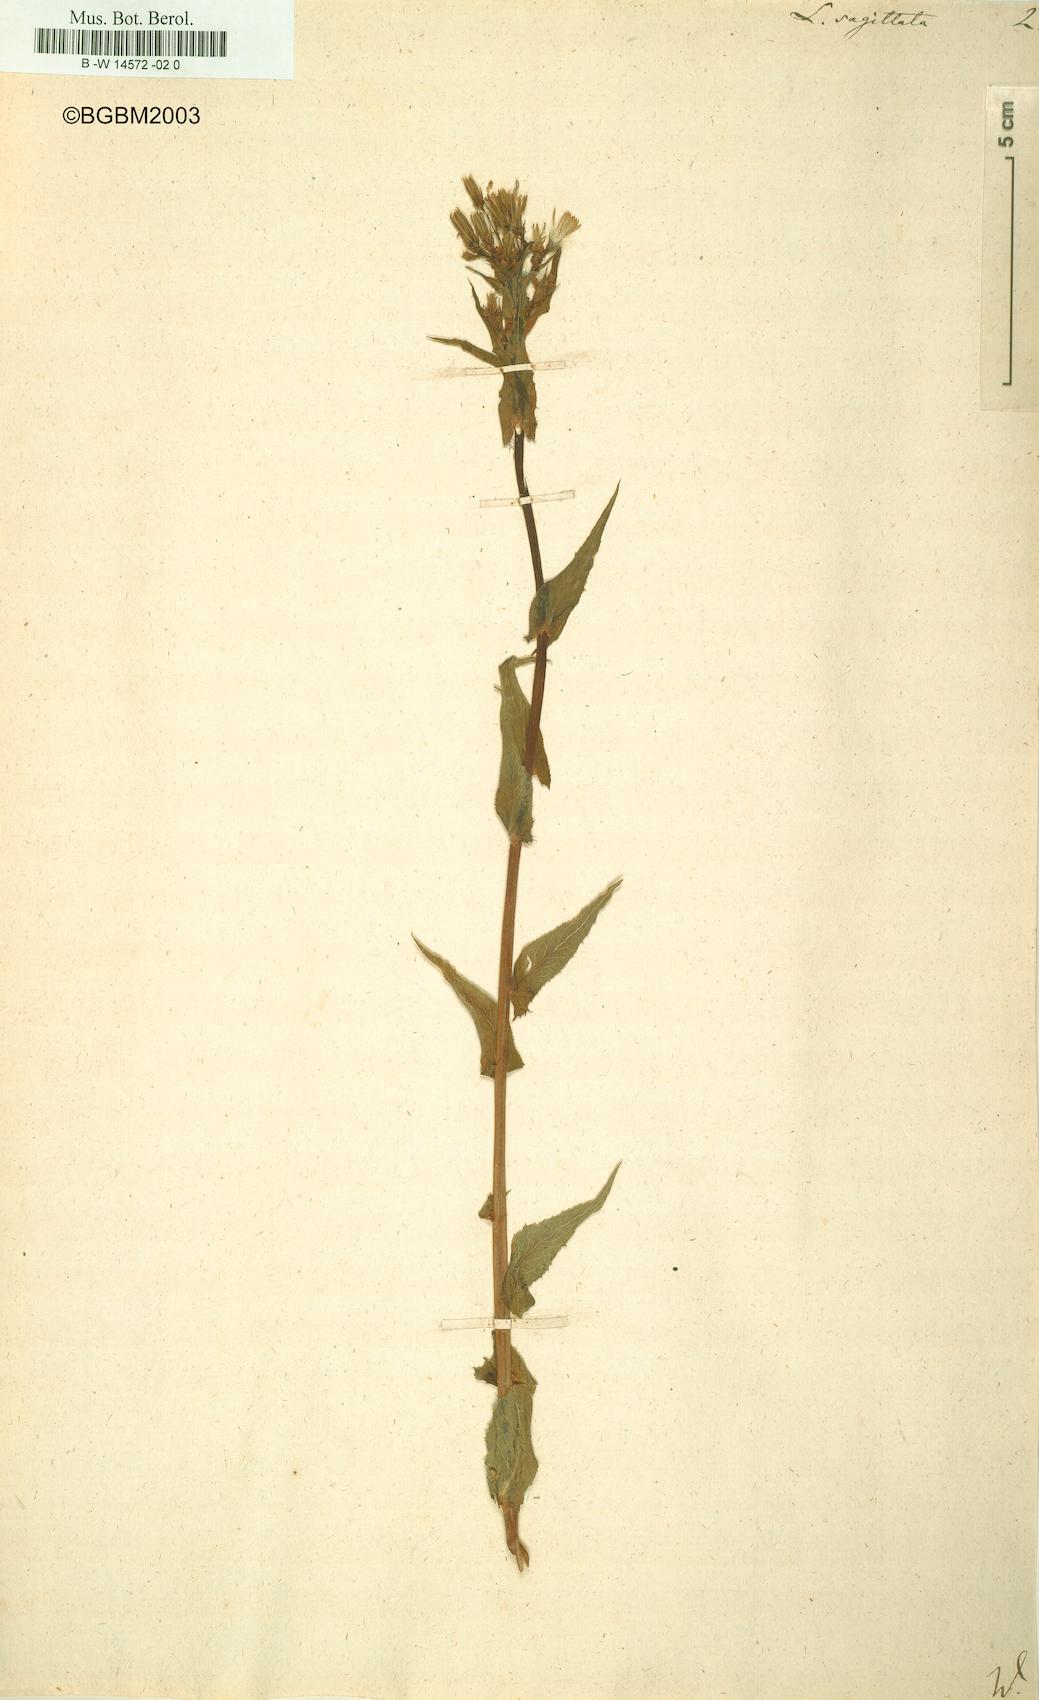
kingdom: Plantae
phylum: Tracheophyta
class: Magnoliopsida
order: Asterales
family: Asteraceae
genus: Lactuca
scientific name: Lactuca sagittata
